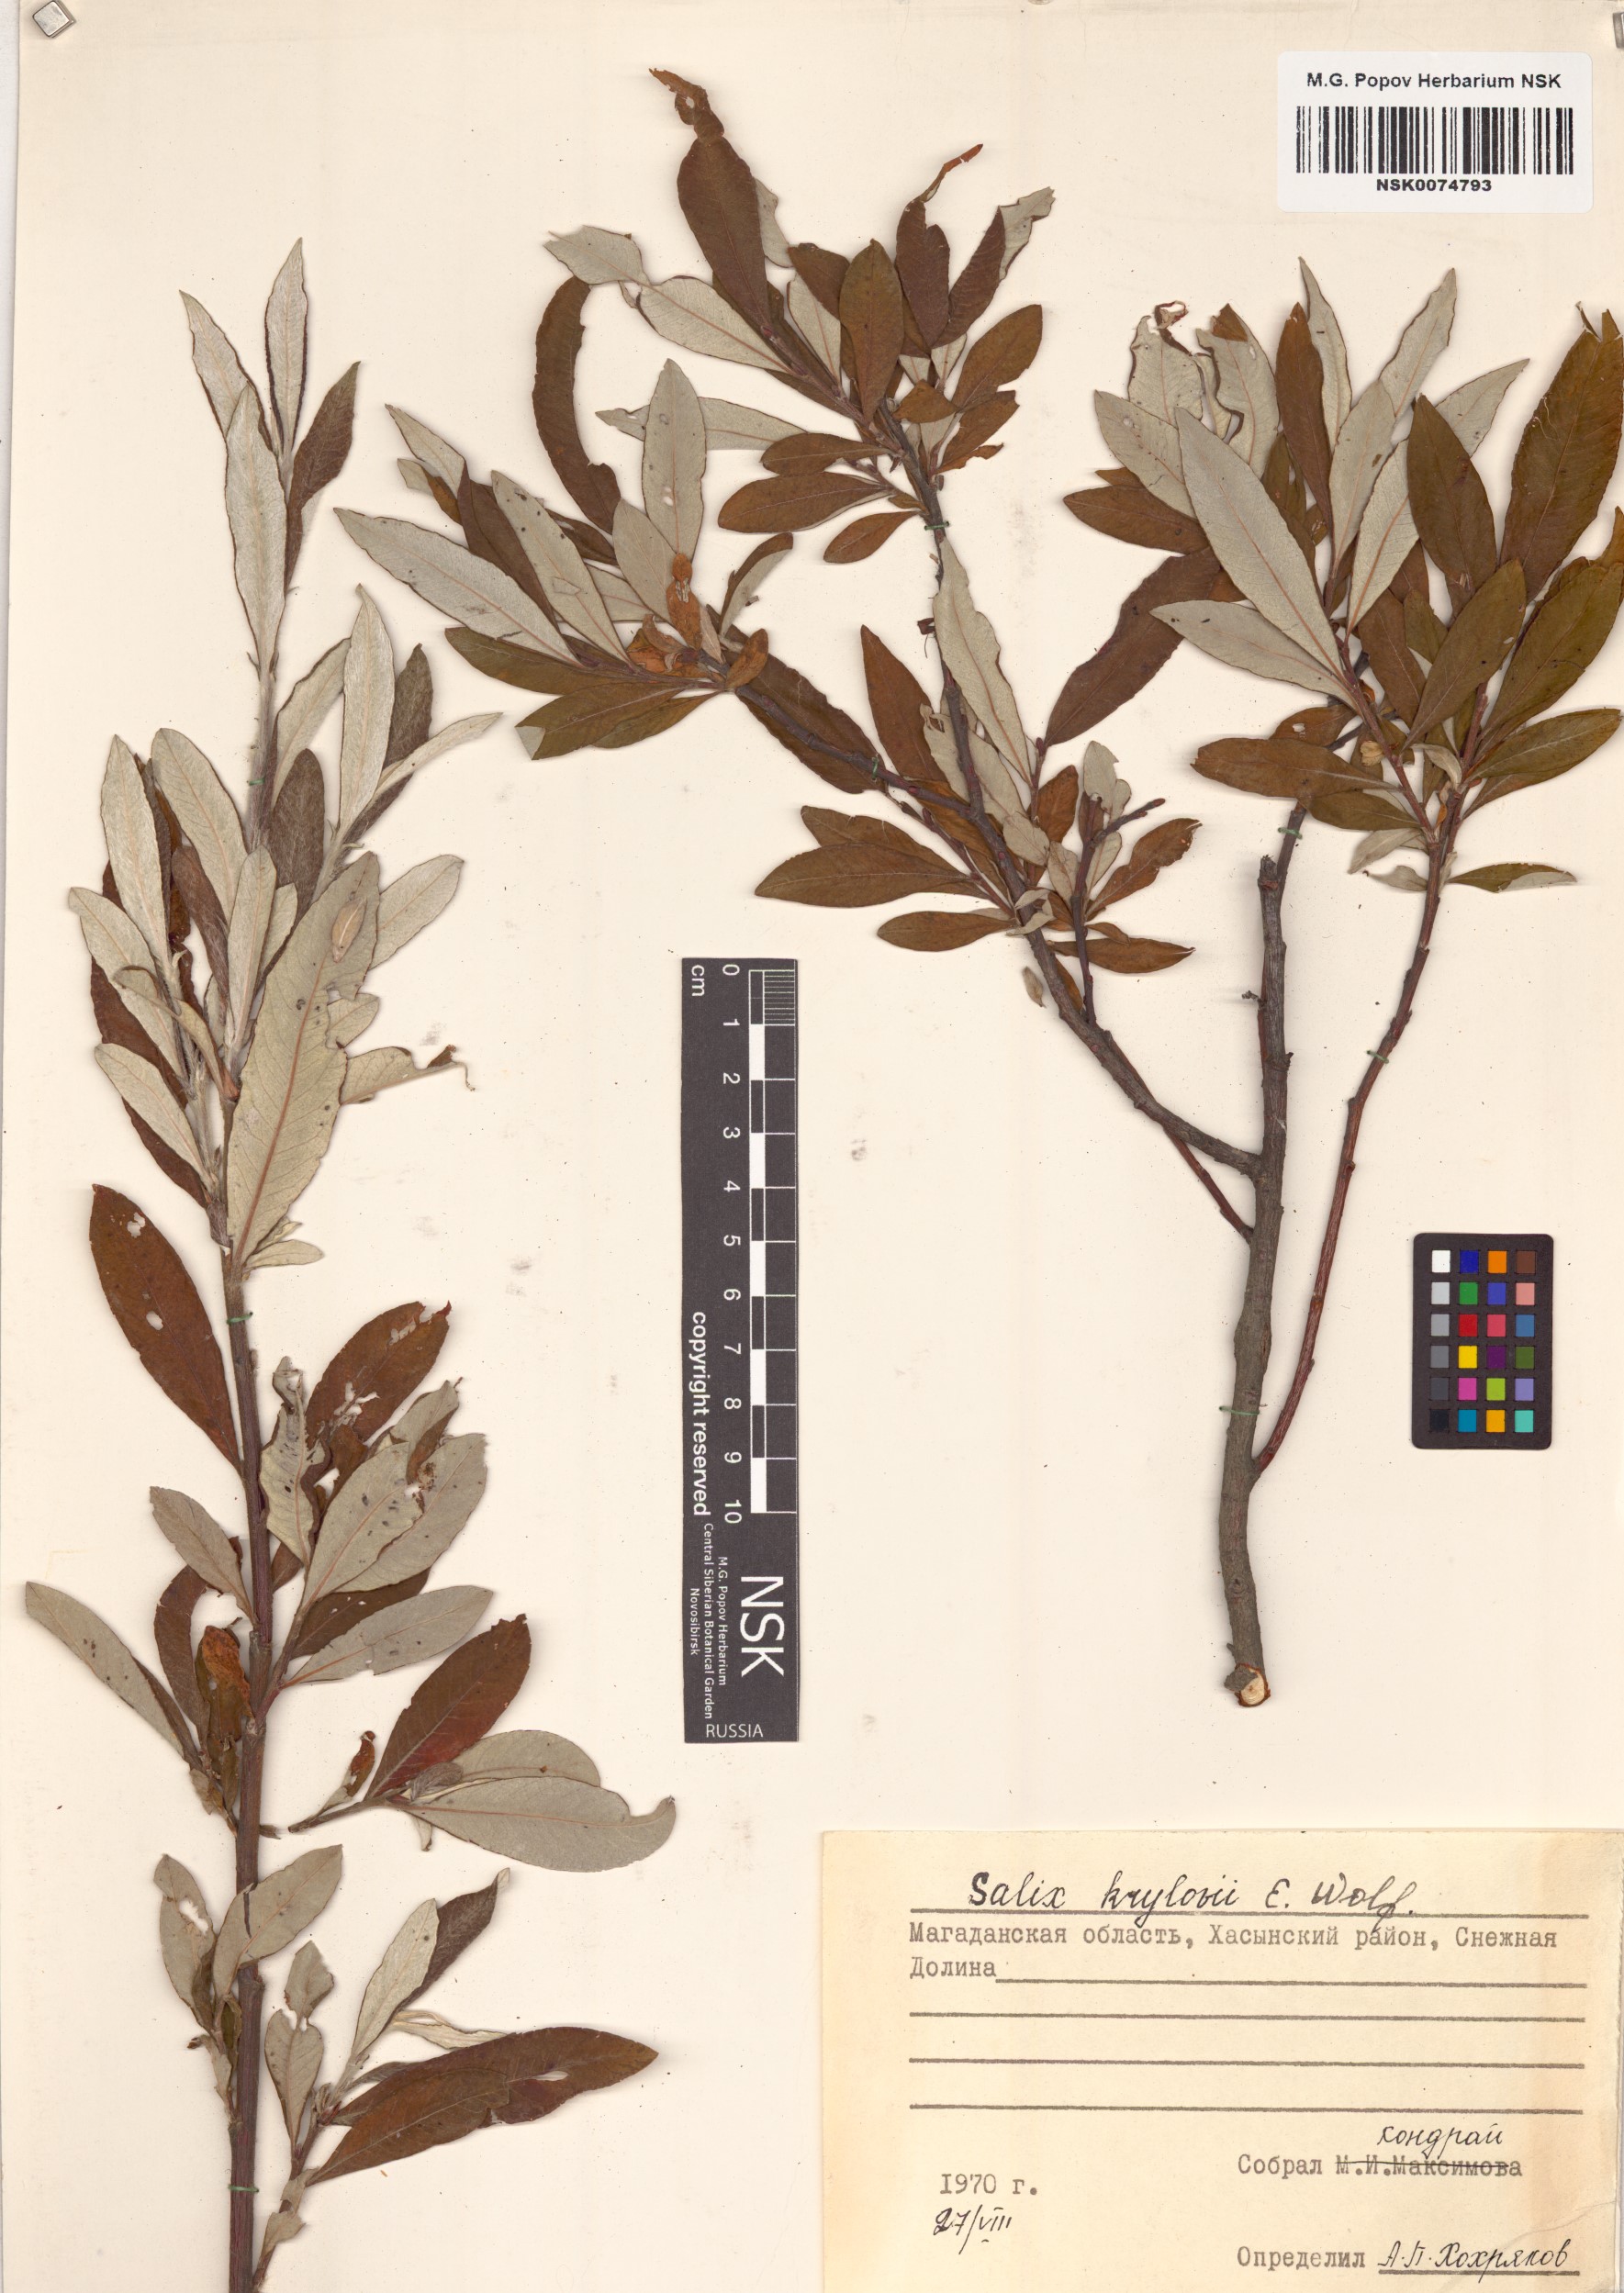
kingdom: Plantae
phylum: Tracheophyta
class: Magnoliopsida
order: Malpighiales
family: Salicaceae
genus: Salix
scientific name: Salix krylovii
